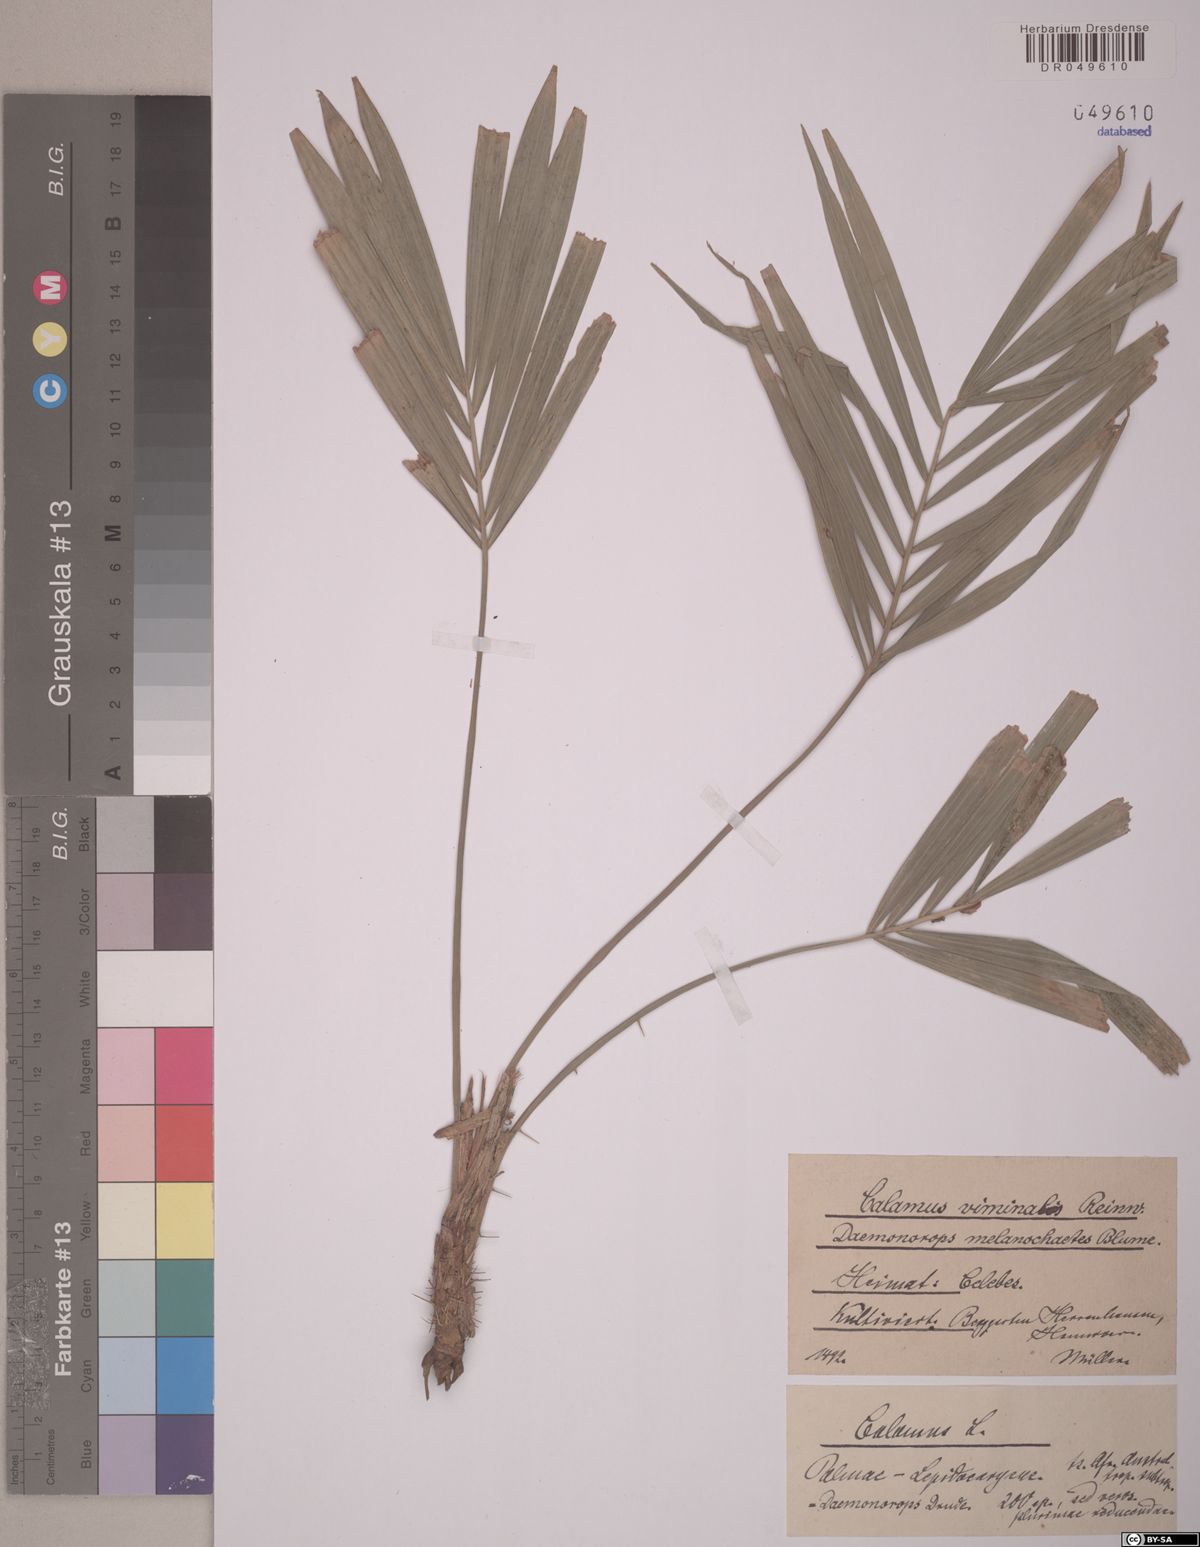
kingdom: Plantae
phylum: Tracheophyta
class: Liliopsida
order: Arecales
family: Arecaceae
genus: Calamus
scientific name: Calamus reinwardtii
